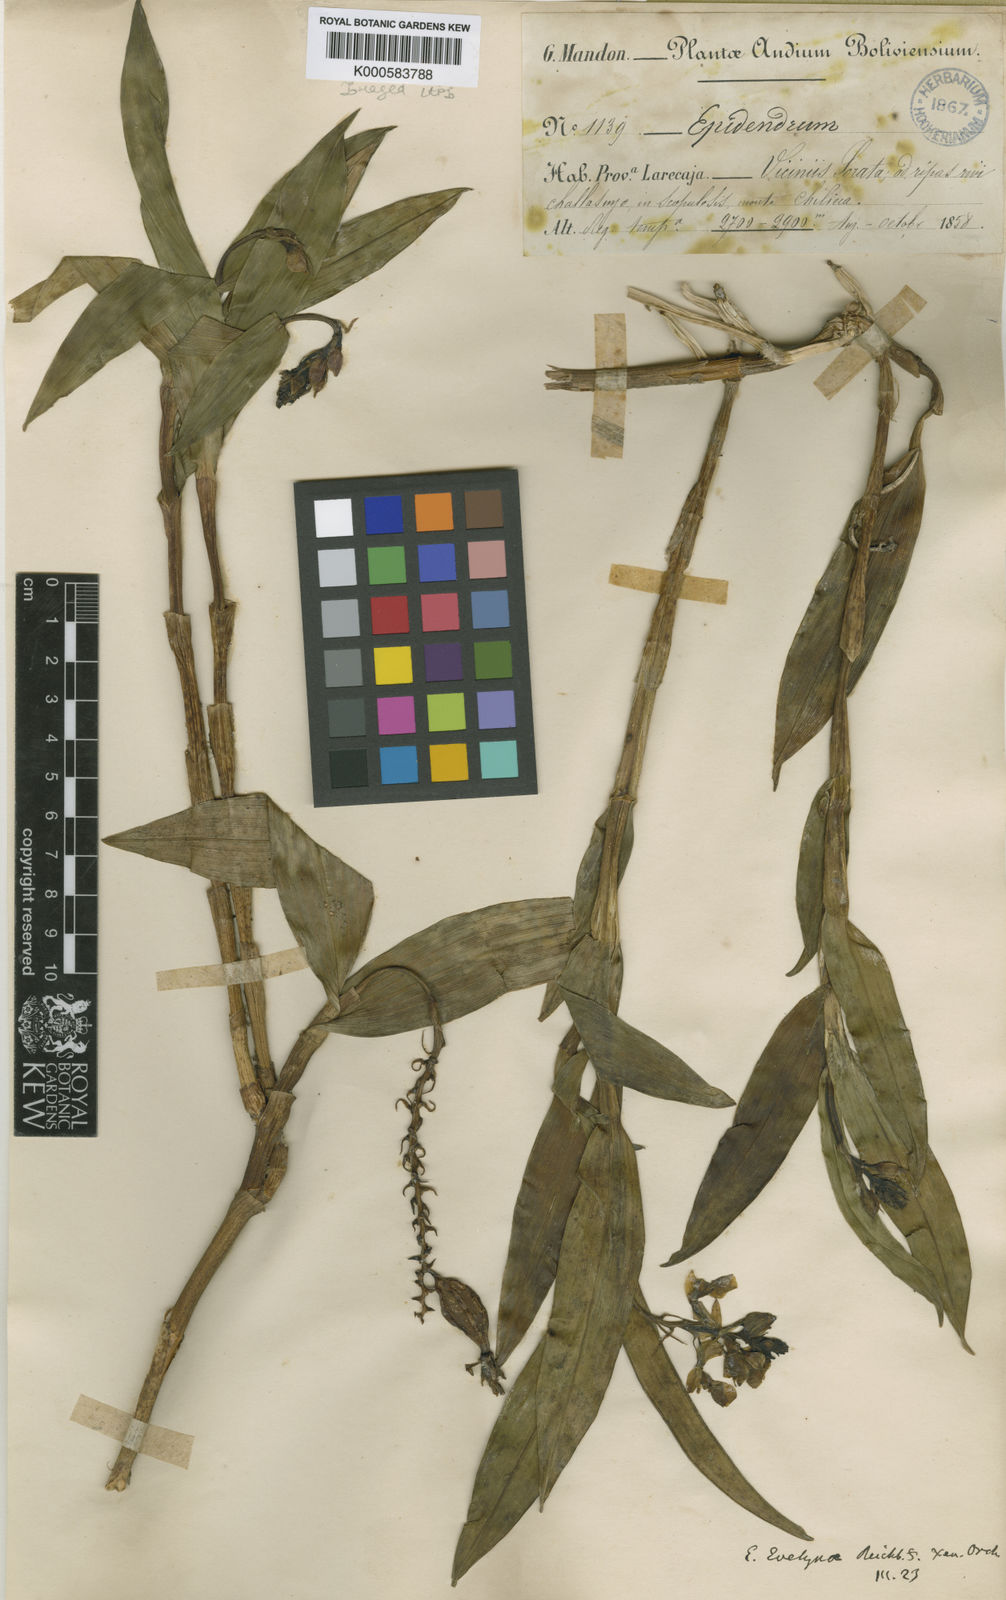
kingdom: Plantae
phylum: Tracheophyta
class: Liliopsida
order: Asparagales
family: Orchidaceae
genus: Epidendrum
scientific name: Epidendrum evelynae
